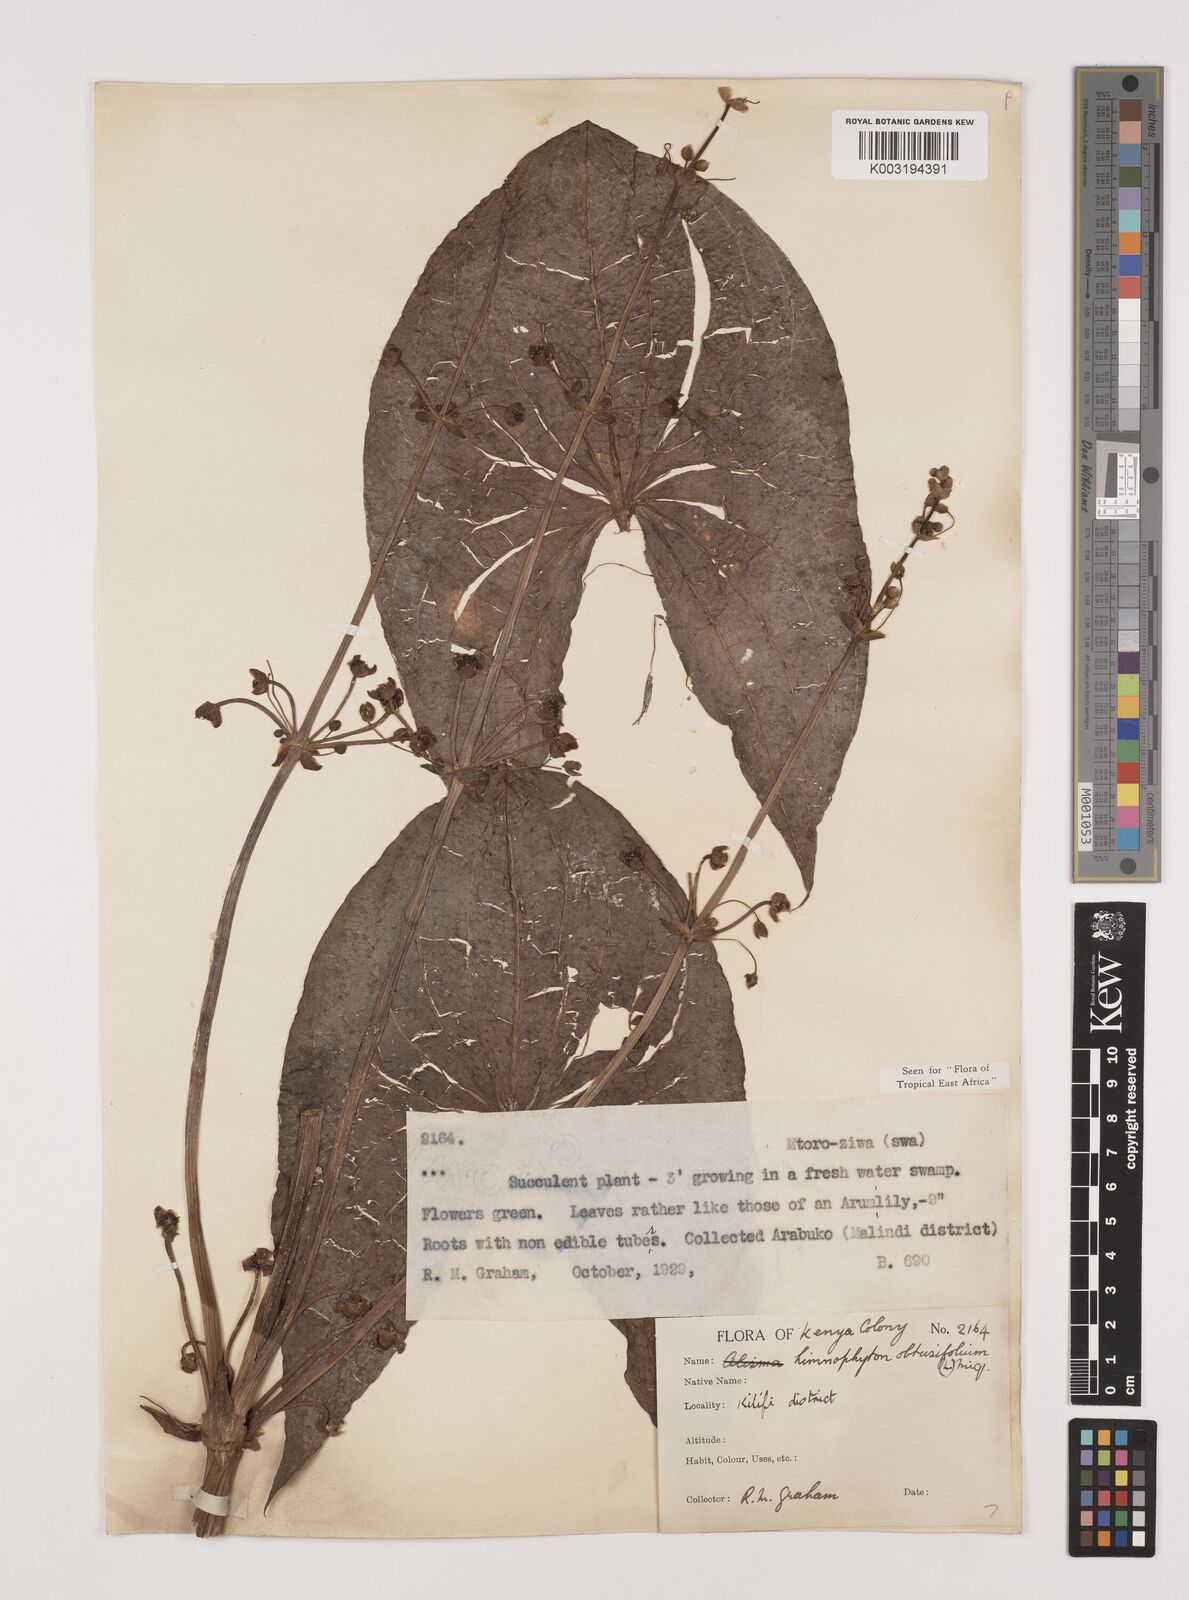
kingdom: Plantae
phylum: Tracheophyta
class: Liliopsida
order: Alismatales
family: Alismataceae
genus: Limnophyton
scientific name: Limnophyton obtusifolium
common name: Arrow head
